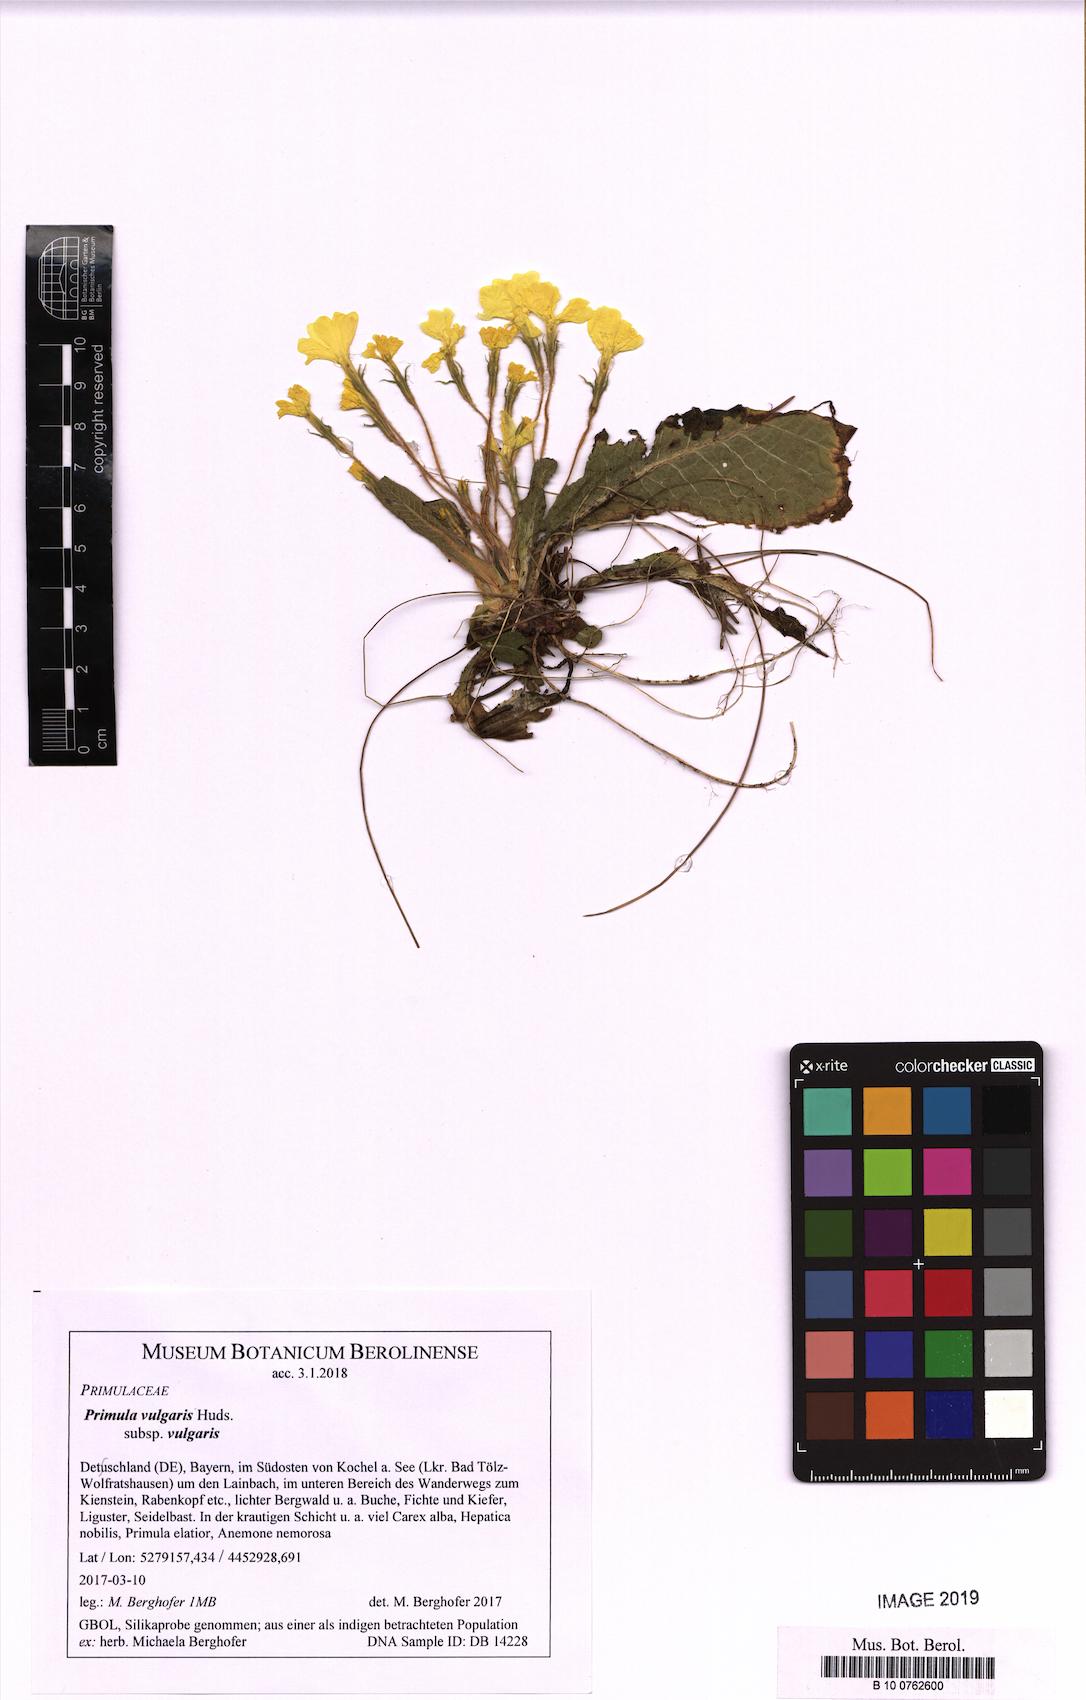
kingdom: Plantae
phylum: Tracheophyta
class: Magnoliopsida
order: Ericales
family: Primulaceae
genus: Primula
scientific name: Primula vulgaris
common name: Primrose
